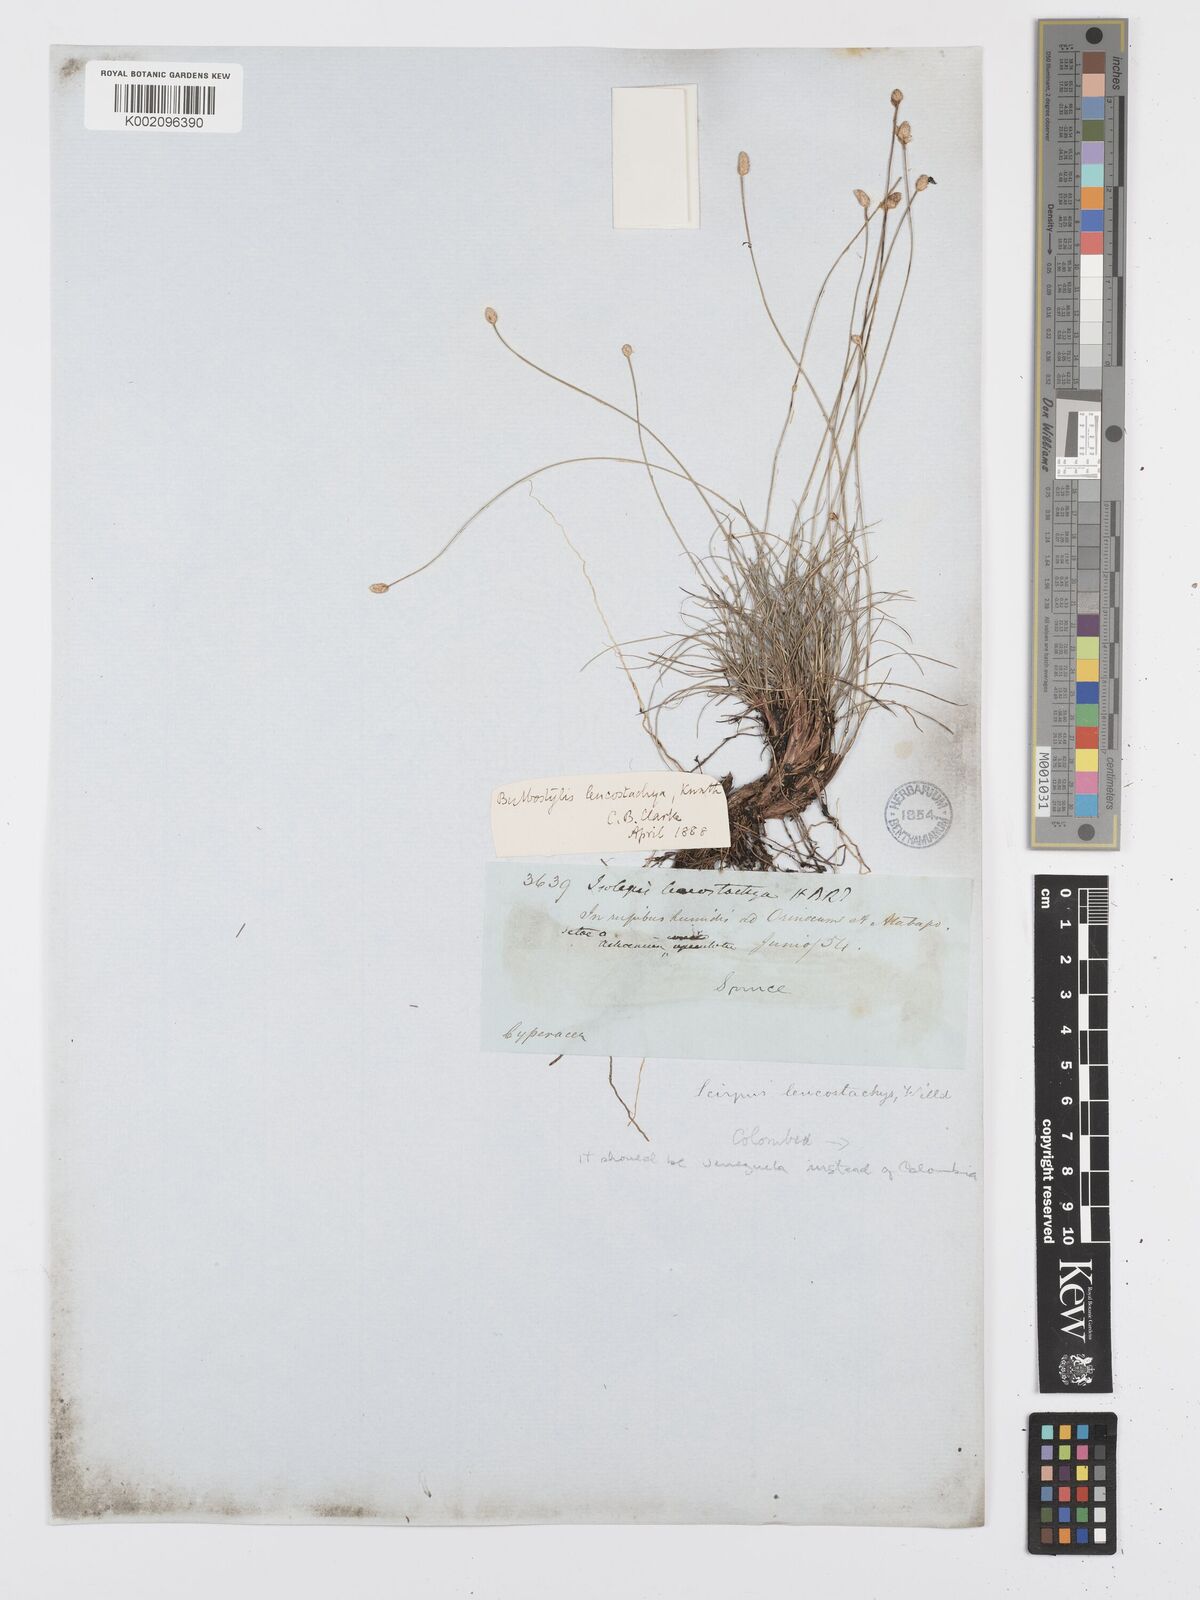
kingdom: Plantae
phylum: Tracheophyta
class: Liliopsida
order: Poales
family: Cyperaceae
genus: Bulbostylis
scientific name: Bulbostylis leucostachya
